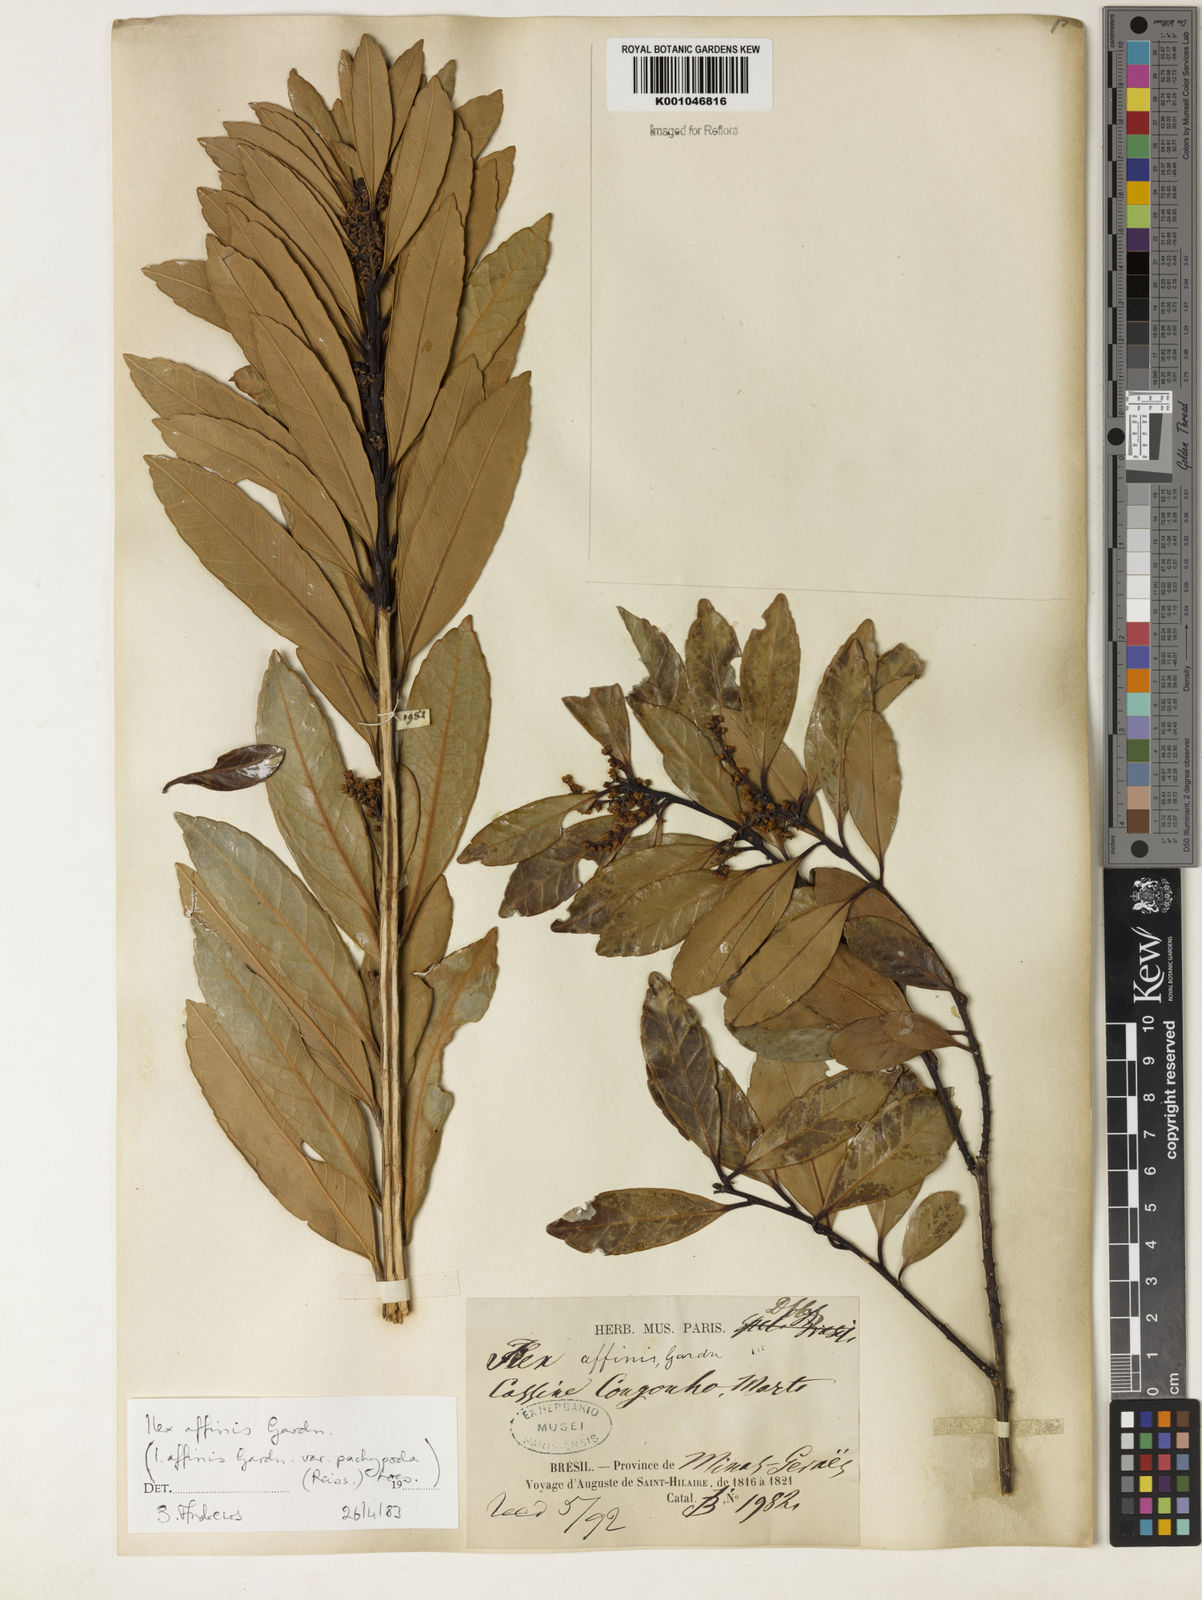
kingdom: Plantae
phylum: Tracheophyta
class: Magnoliopsida
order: Aquifoliales
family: Aquifoliaceae
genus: Ilex
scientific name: Ilex affinis
